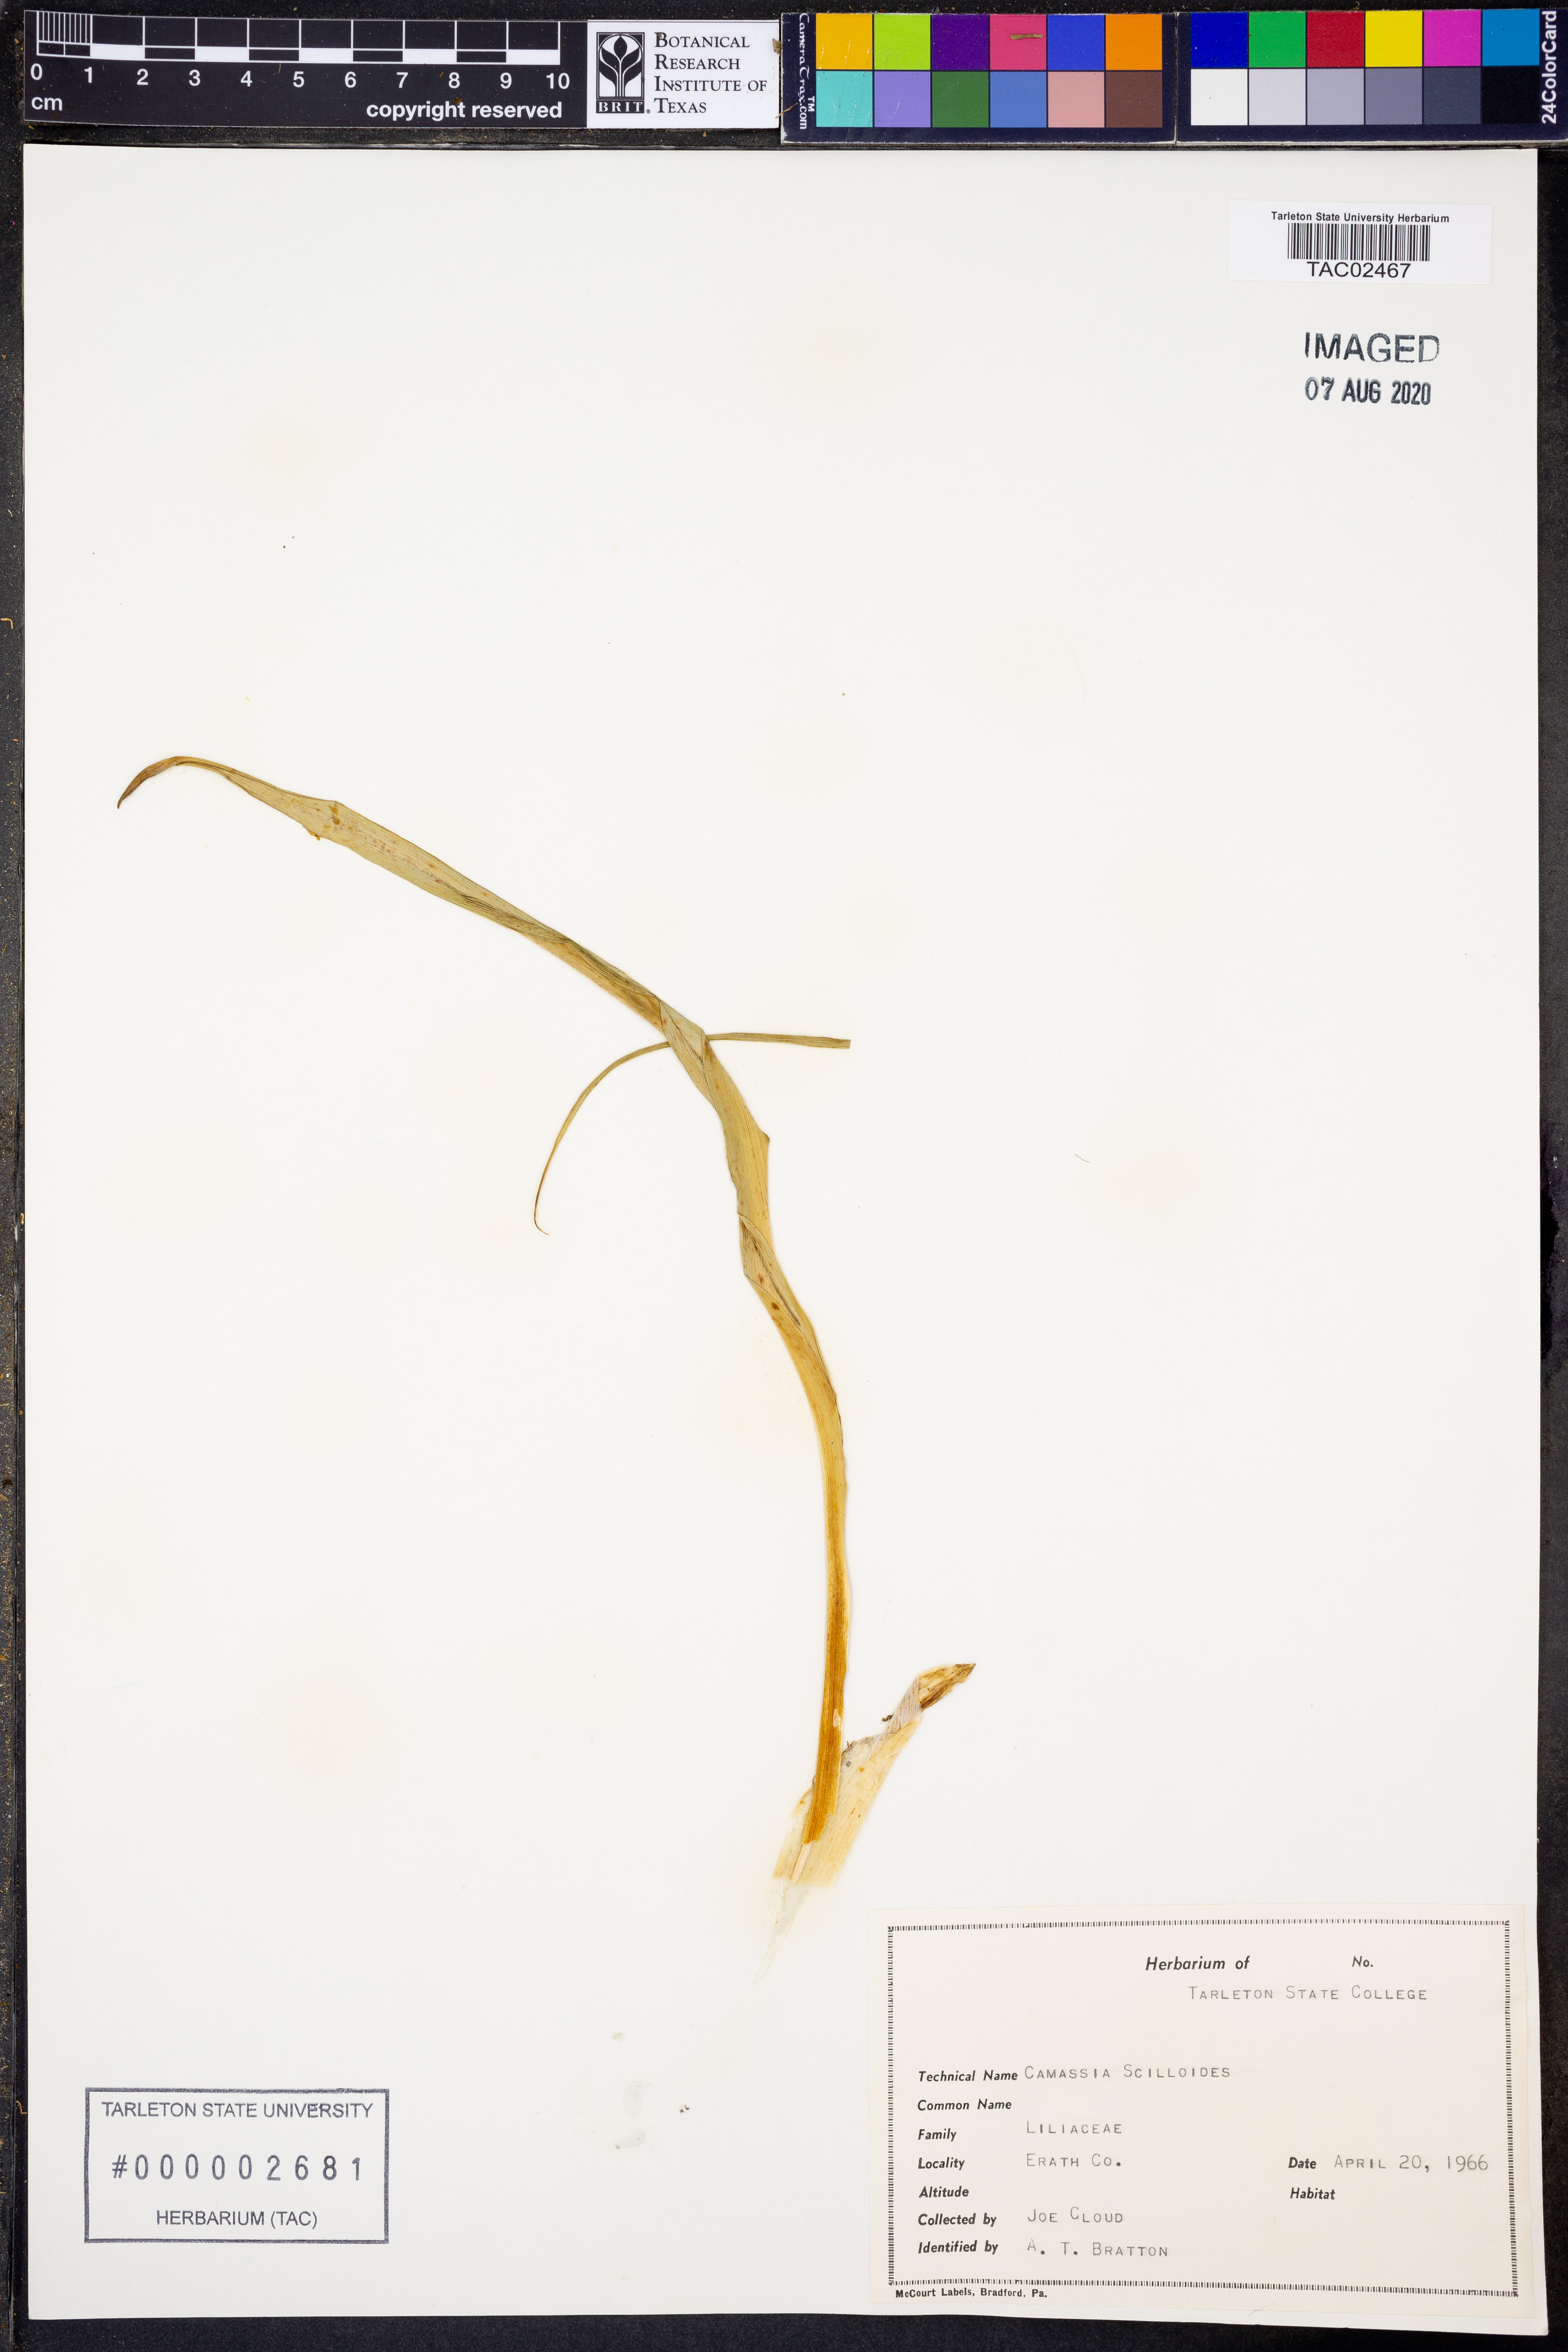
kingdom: Plantae
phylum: Tracheophyta
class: Liliopsida
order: Asparagales
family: Asparagaceae
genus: Camassia
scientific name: Camassia scilloides
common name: Wild hyacinth
